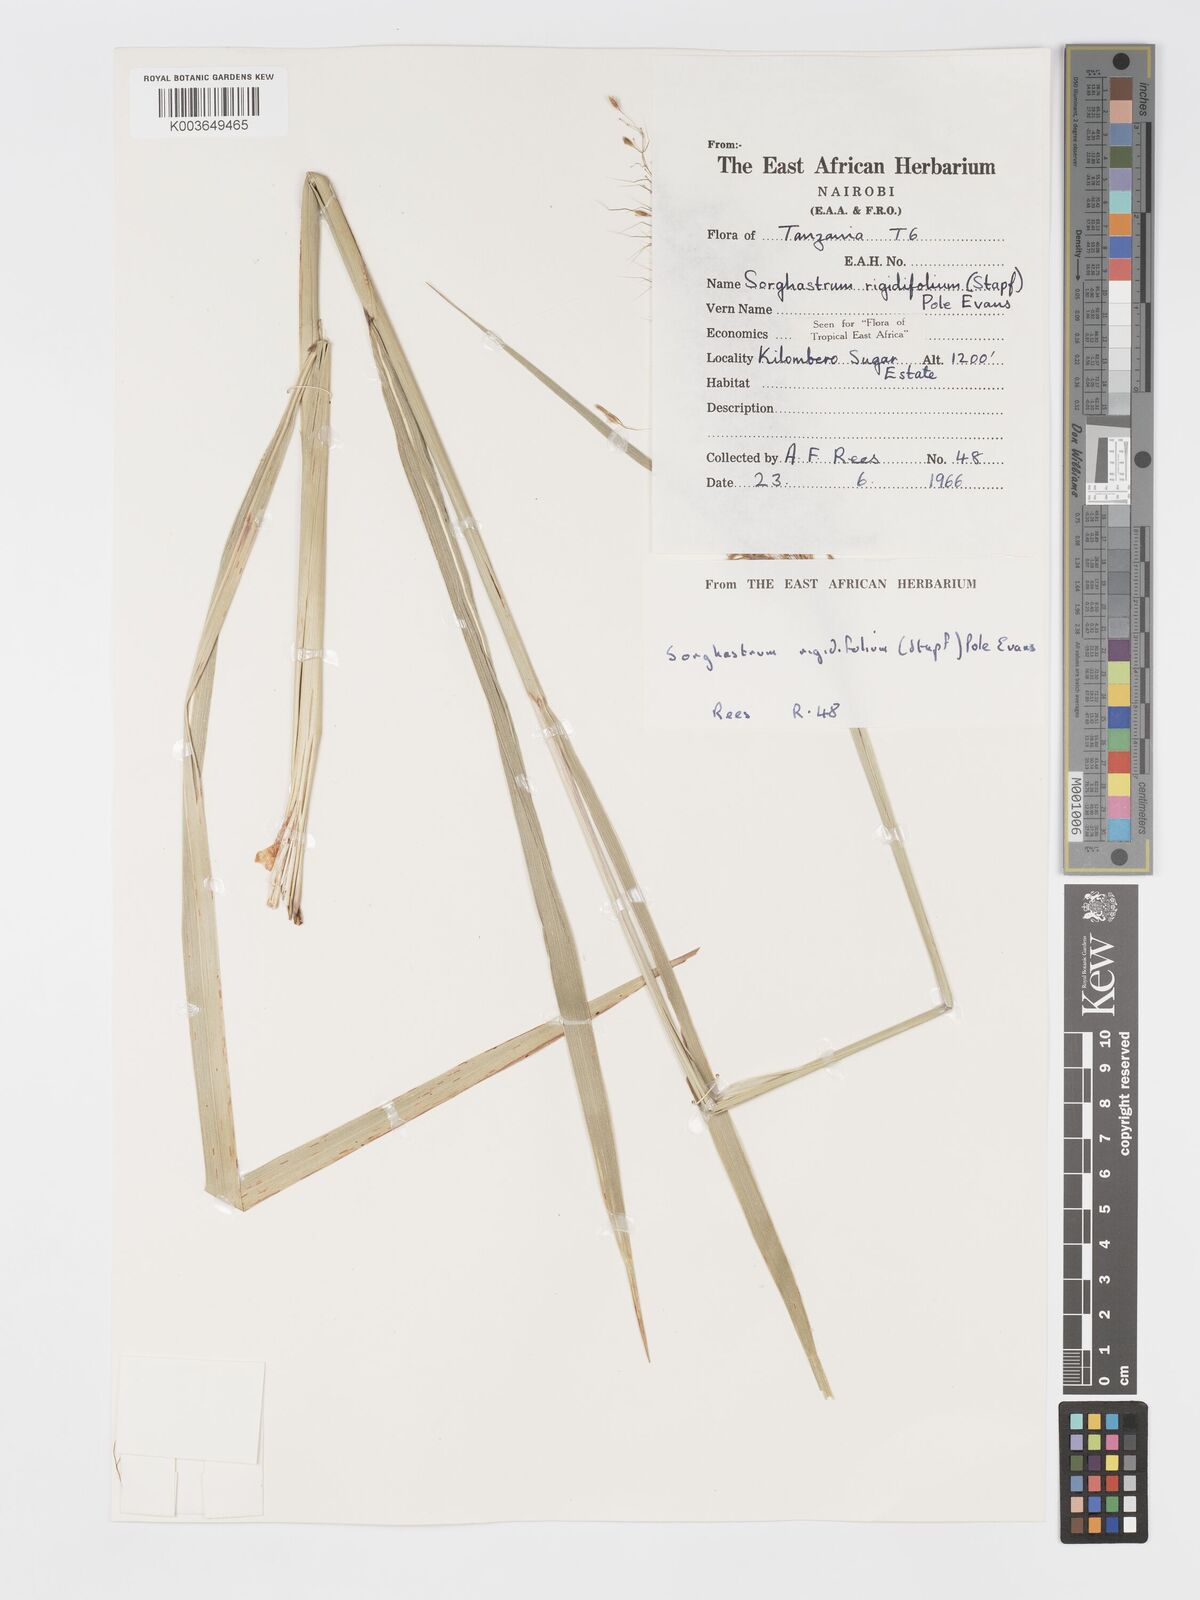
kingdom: Plantae
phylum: Tracheophyta
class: Liliopsida
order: Poales
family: Poaceae
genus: Sorghastrum
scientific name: Sorghastrum stipoides
